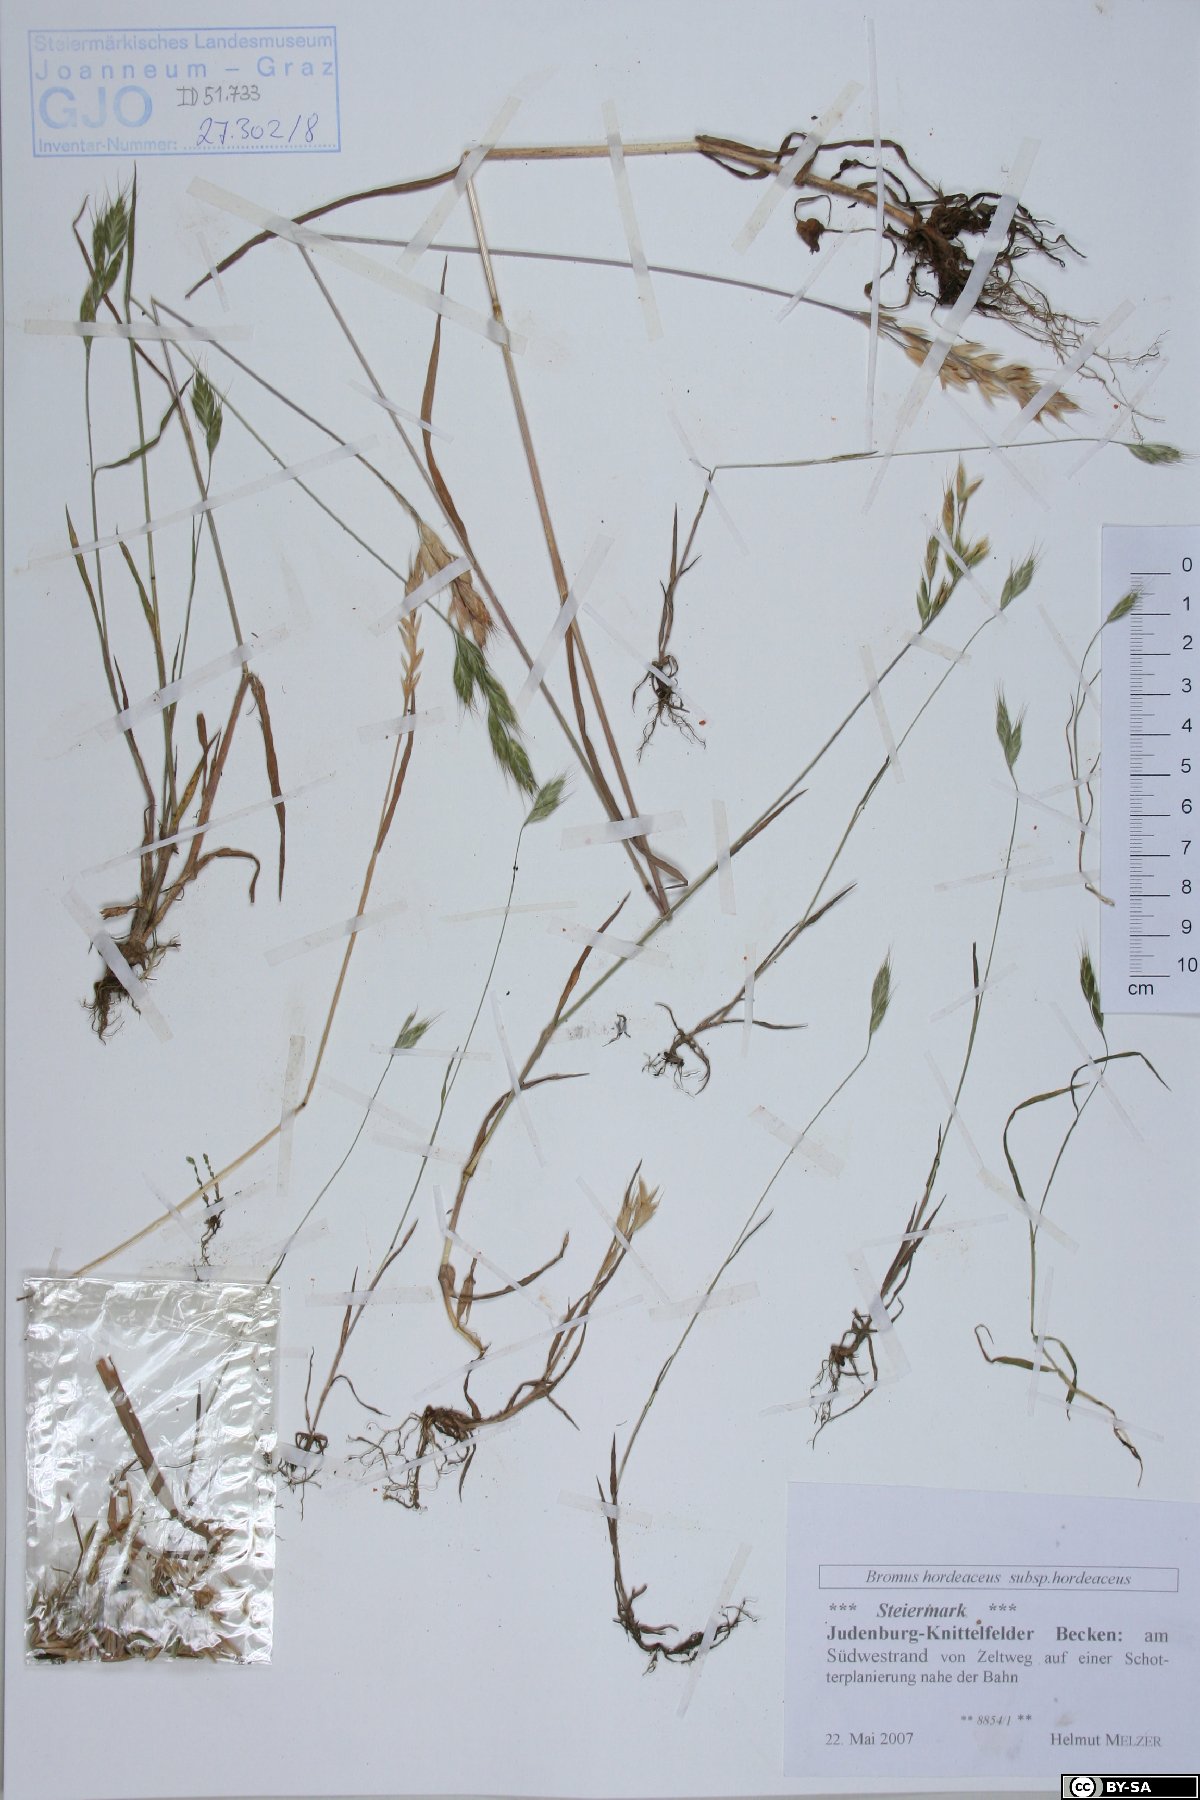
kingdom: Plantae
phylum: Tracheophyta
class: Liliopsida
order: Poales
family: Poaceae
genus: Bromus
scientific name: Bromus hordeaceus
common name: Soft brome
